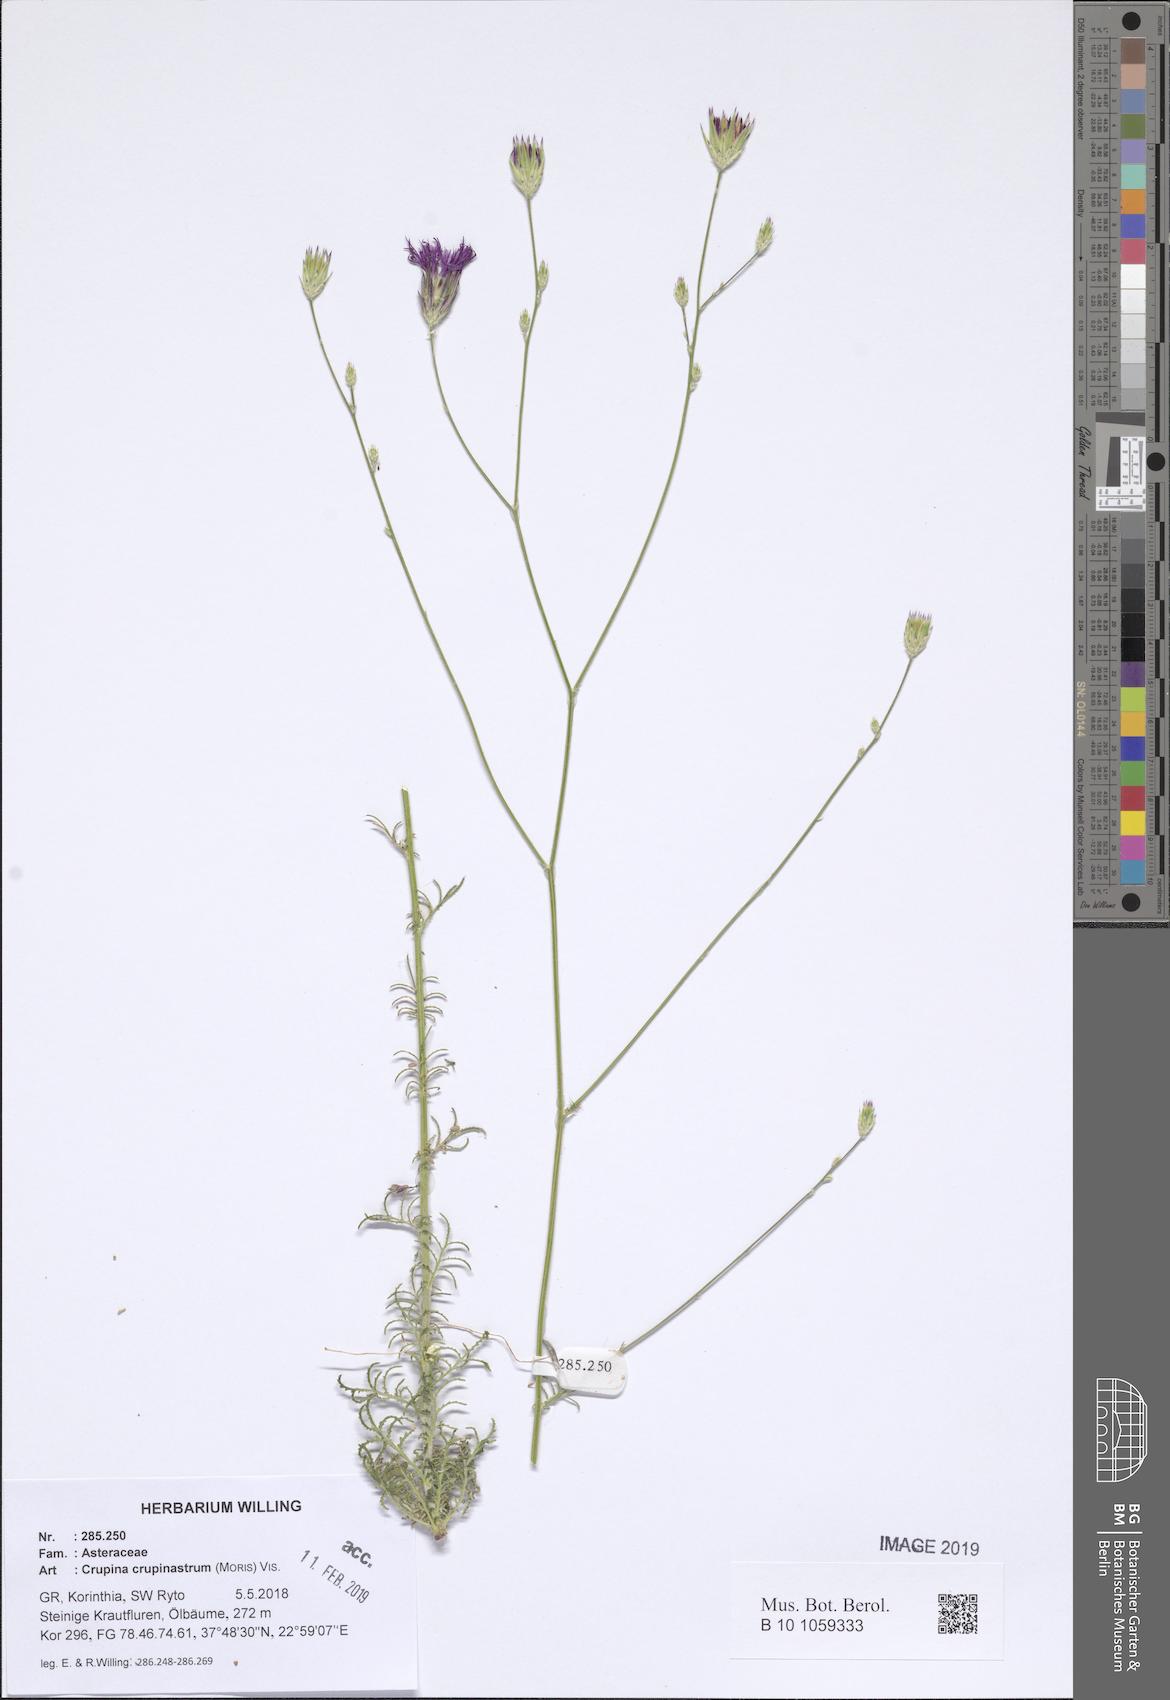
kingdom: Plantae
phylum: Tracheophyta
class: Magnoliopsida
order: Asterales
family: Asteraceae
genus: Crupina
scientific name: Crupina crupinastrum
